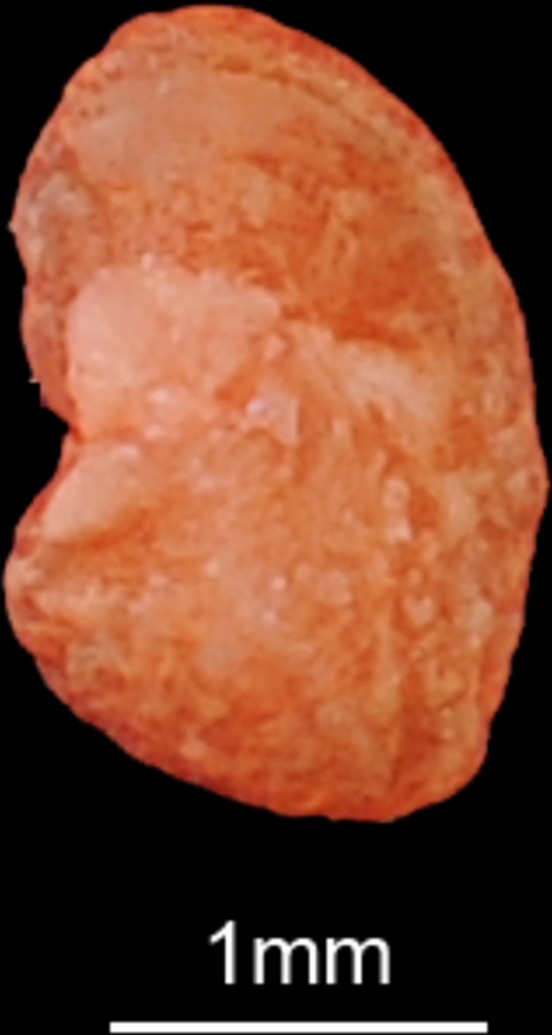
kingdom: Animalia
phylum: Chordata
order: Siluriformes
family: Schilbeidae
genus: Schilbe
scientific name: Schilbe intermedius
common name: Silver catfish
